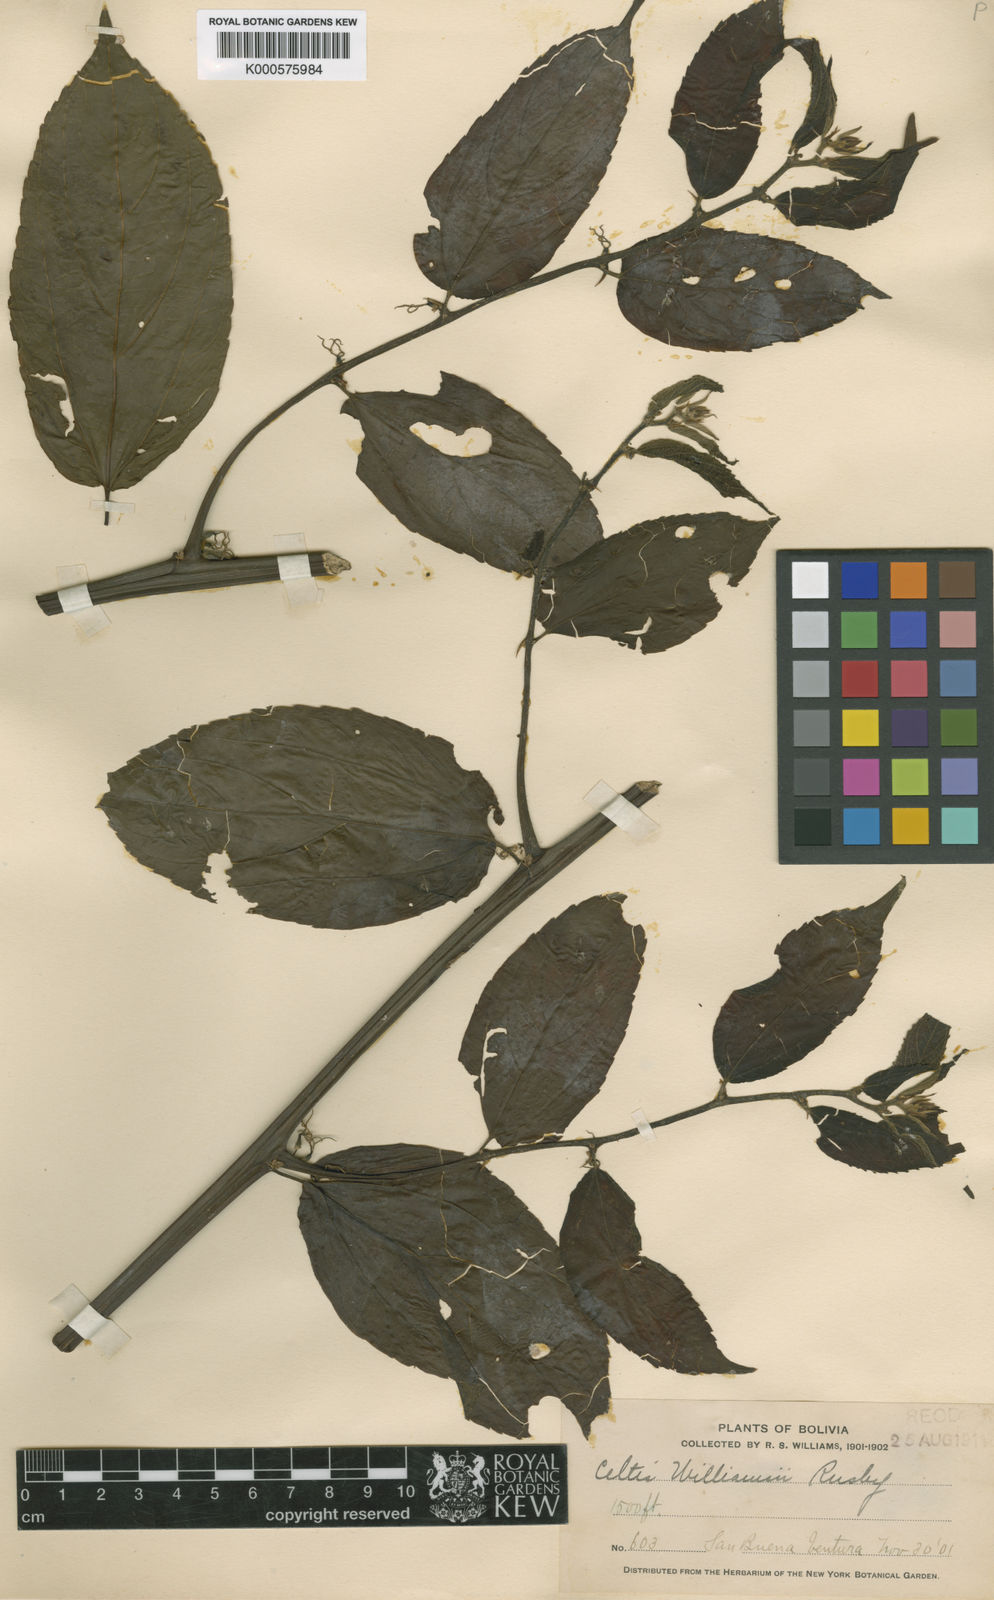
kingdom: Plantae
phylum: Tracheophyta
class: Magnoliopsida
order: Rosales
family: Cannabaceae
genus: Celtis
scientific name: Celtis iguanaea
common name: Iguana hackberry
